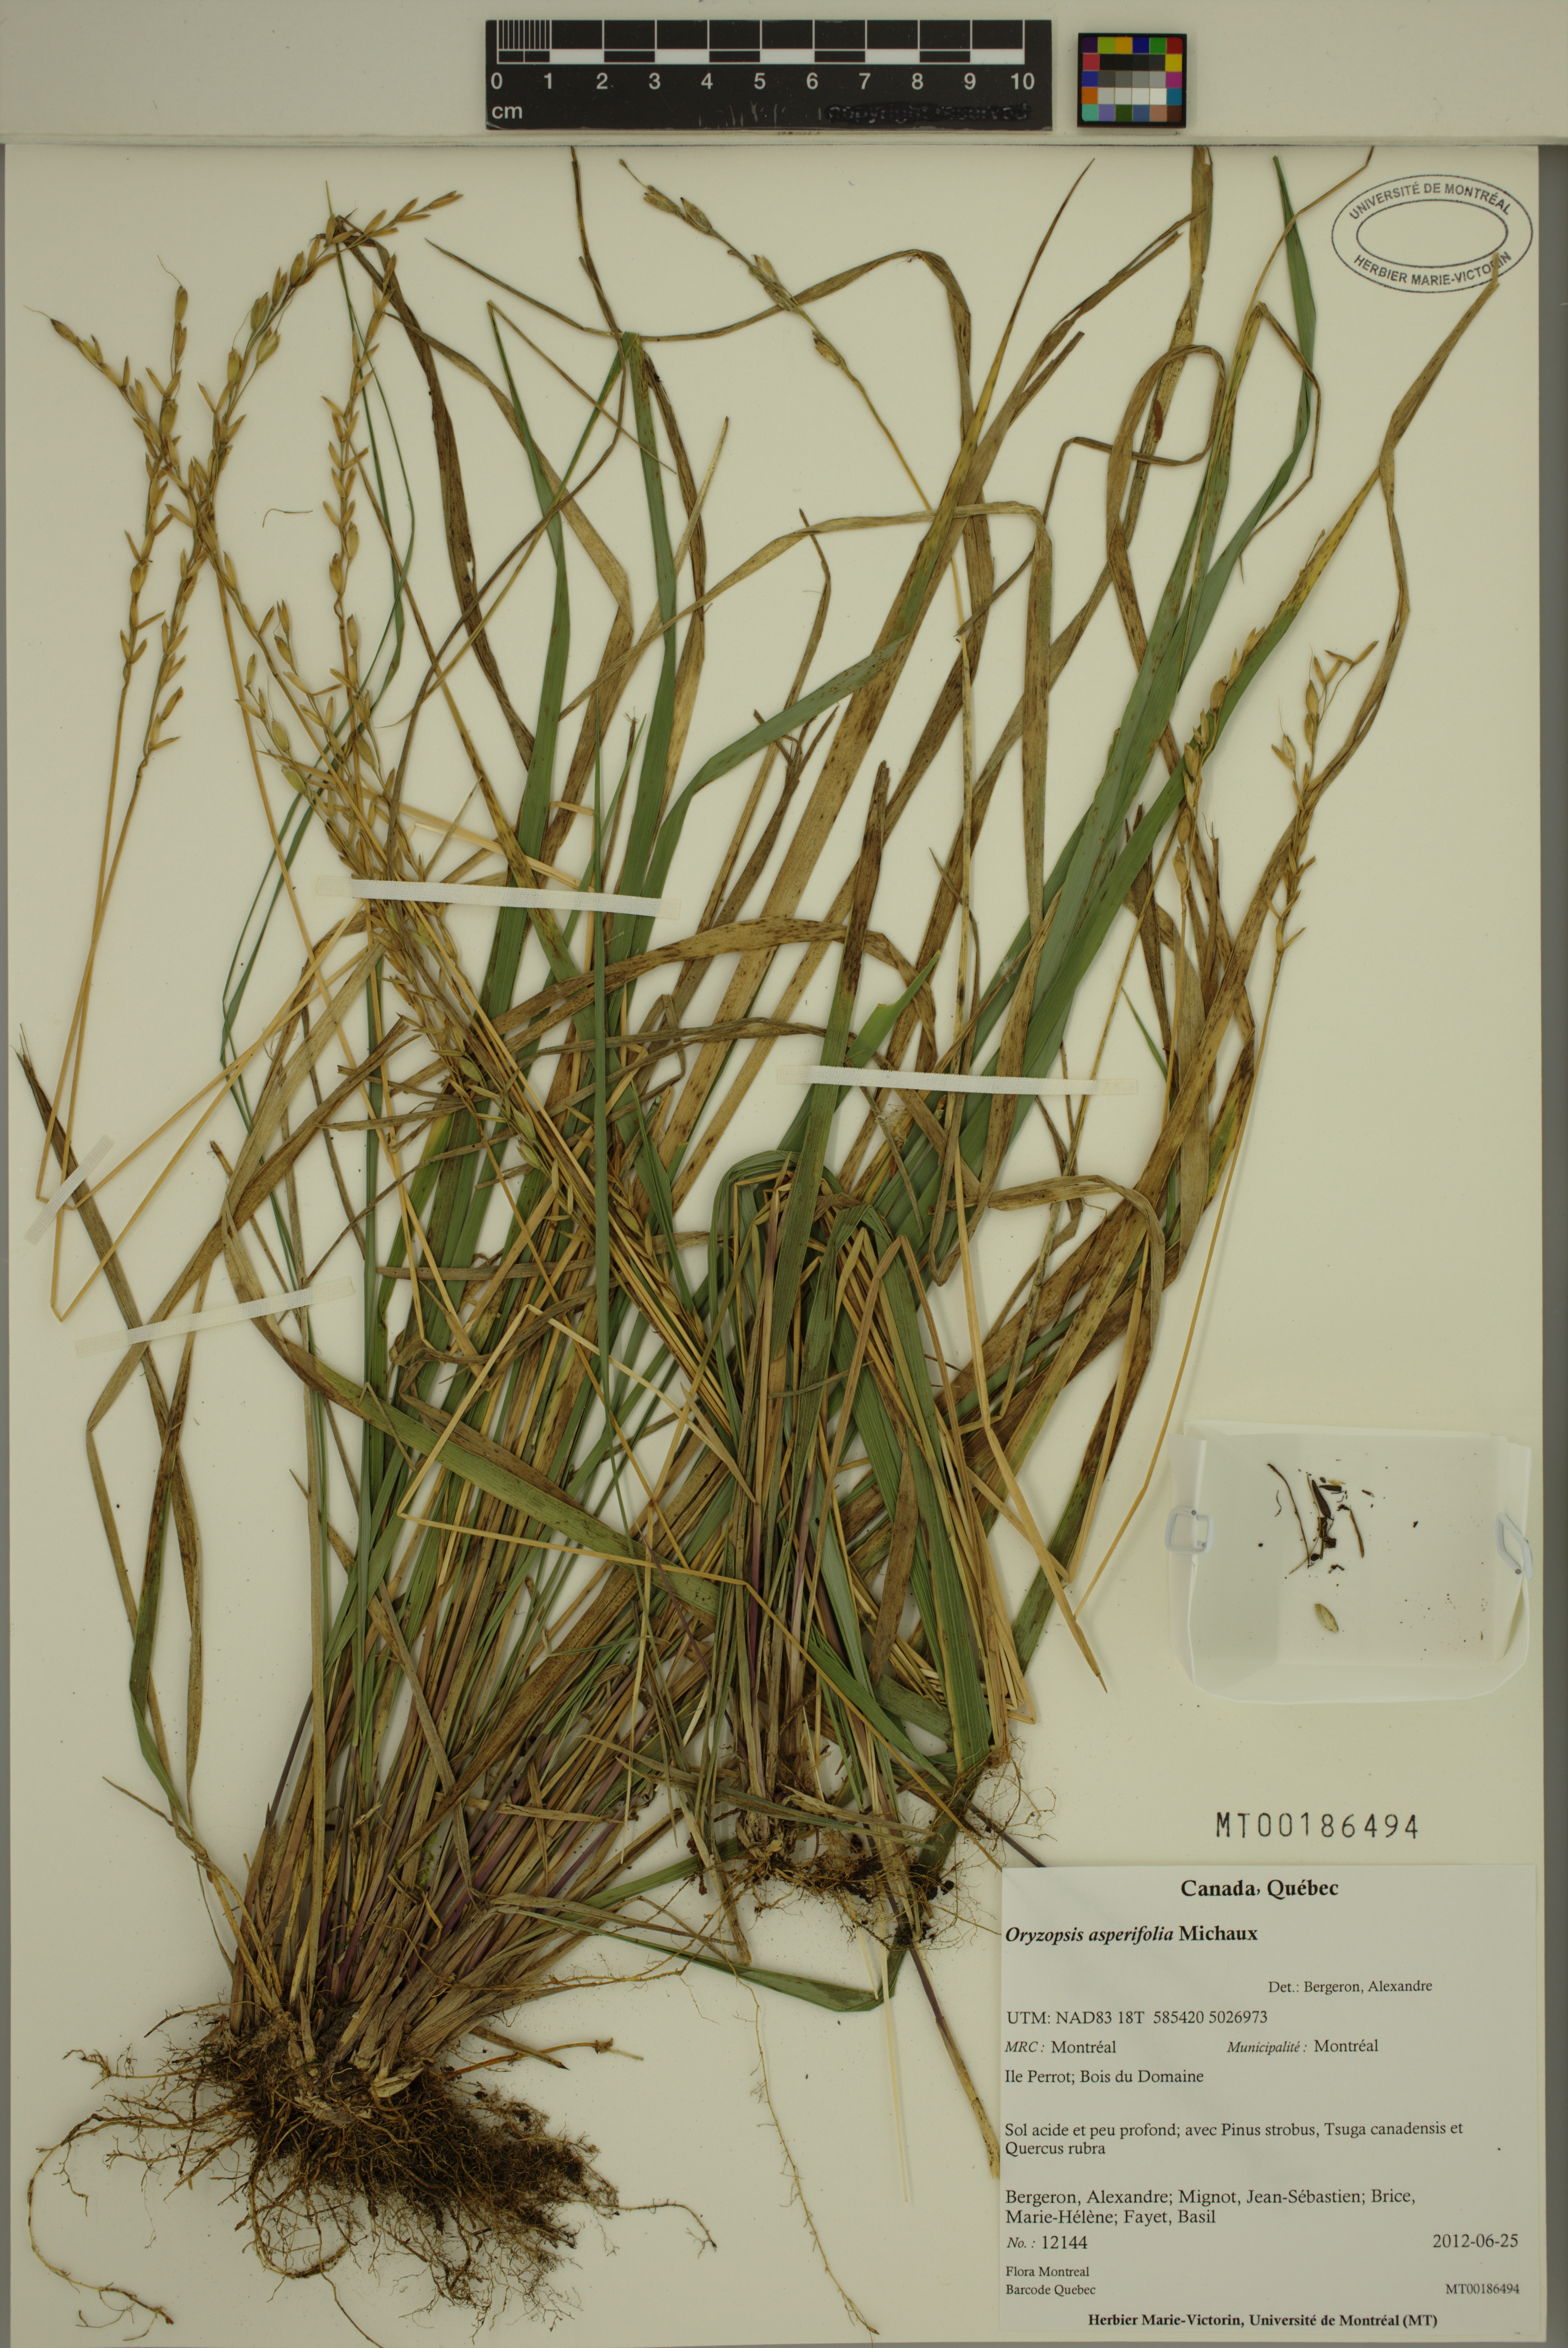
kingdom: Plantae
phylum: Tracheophyta
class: Liliopsida
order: Poales
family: Poaceae
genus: Oryzopsis
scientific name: Oryzopsis asperifolia
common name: Rough-leaved mountain rice
